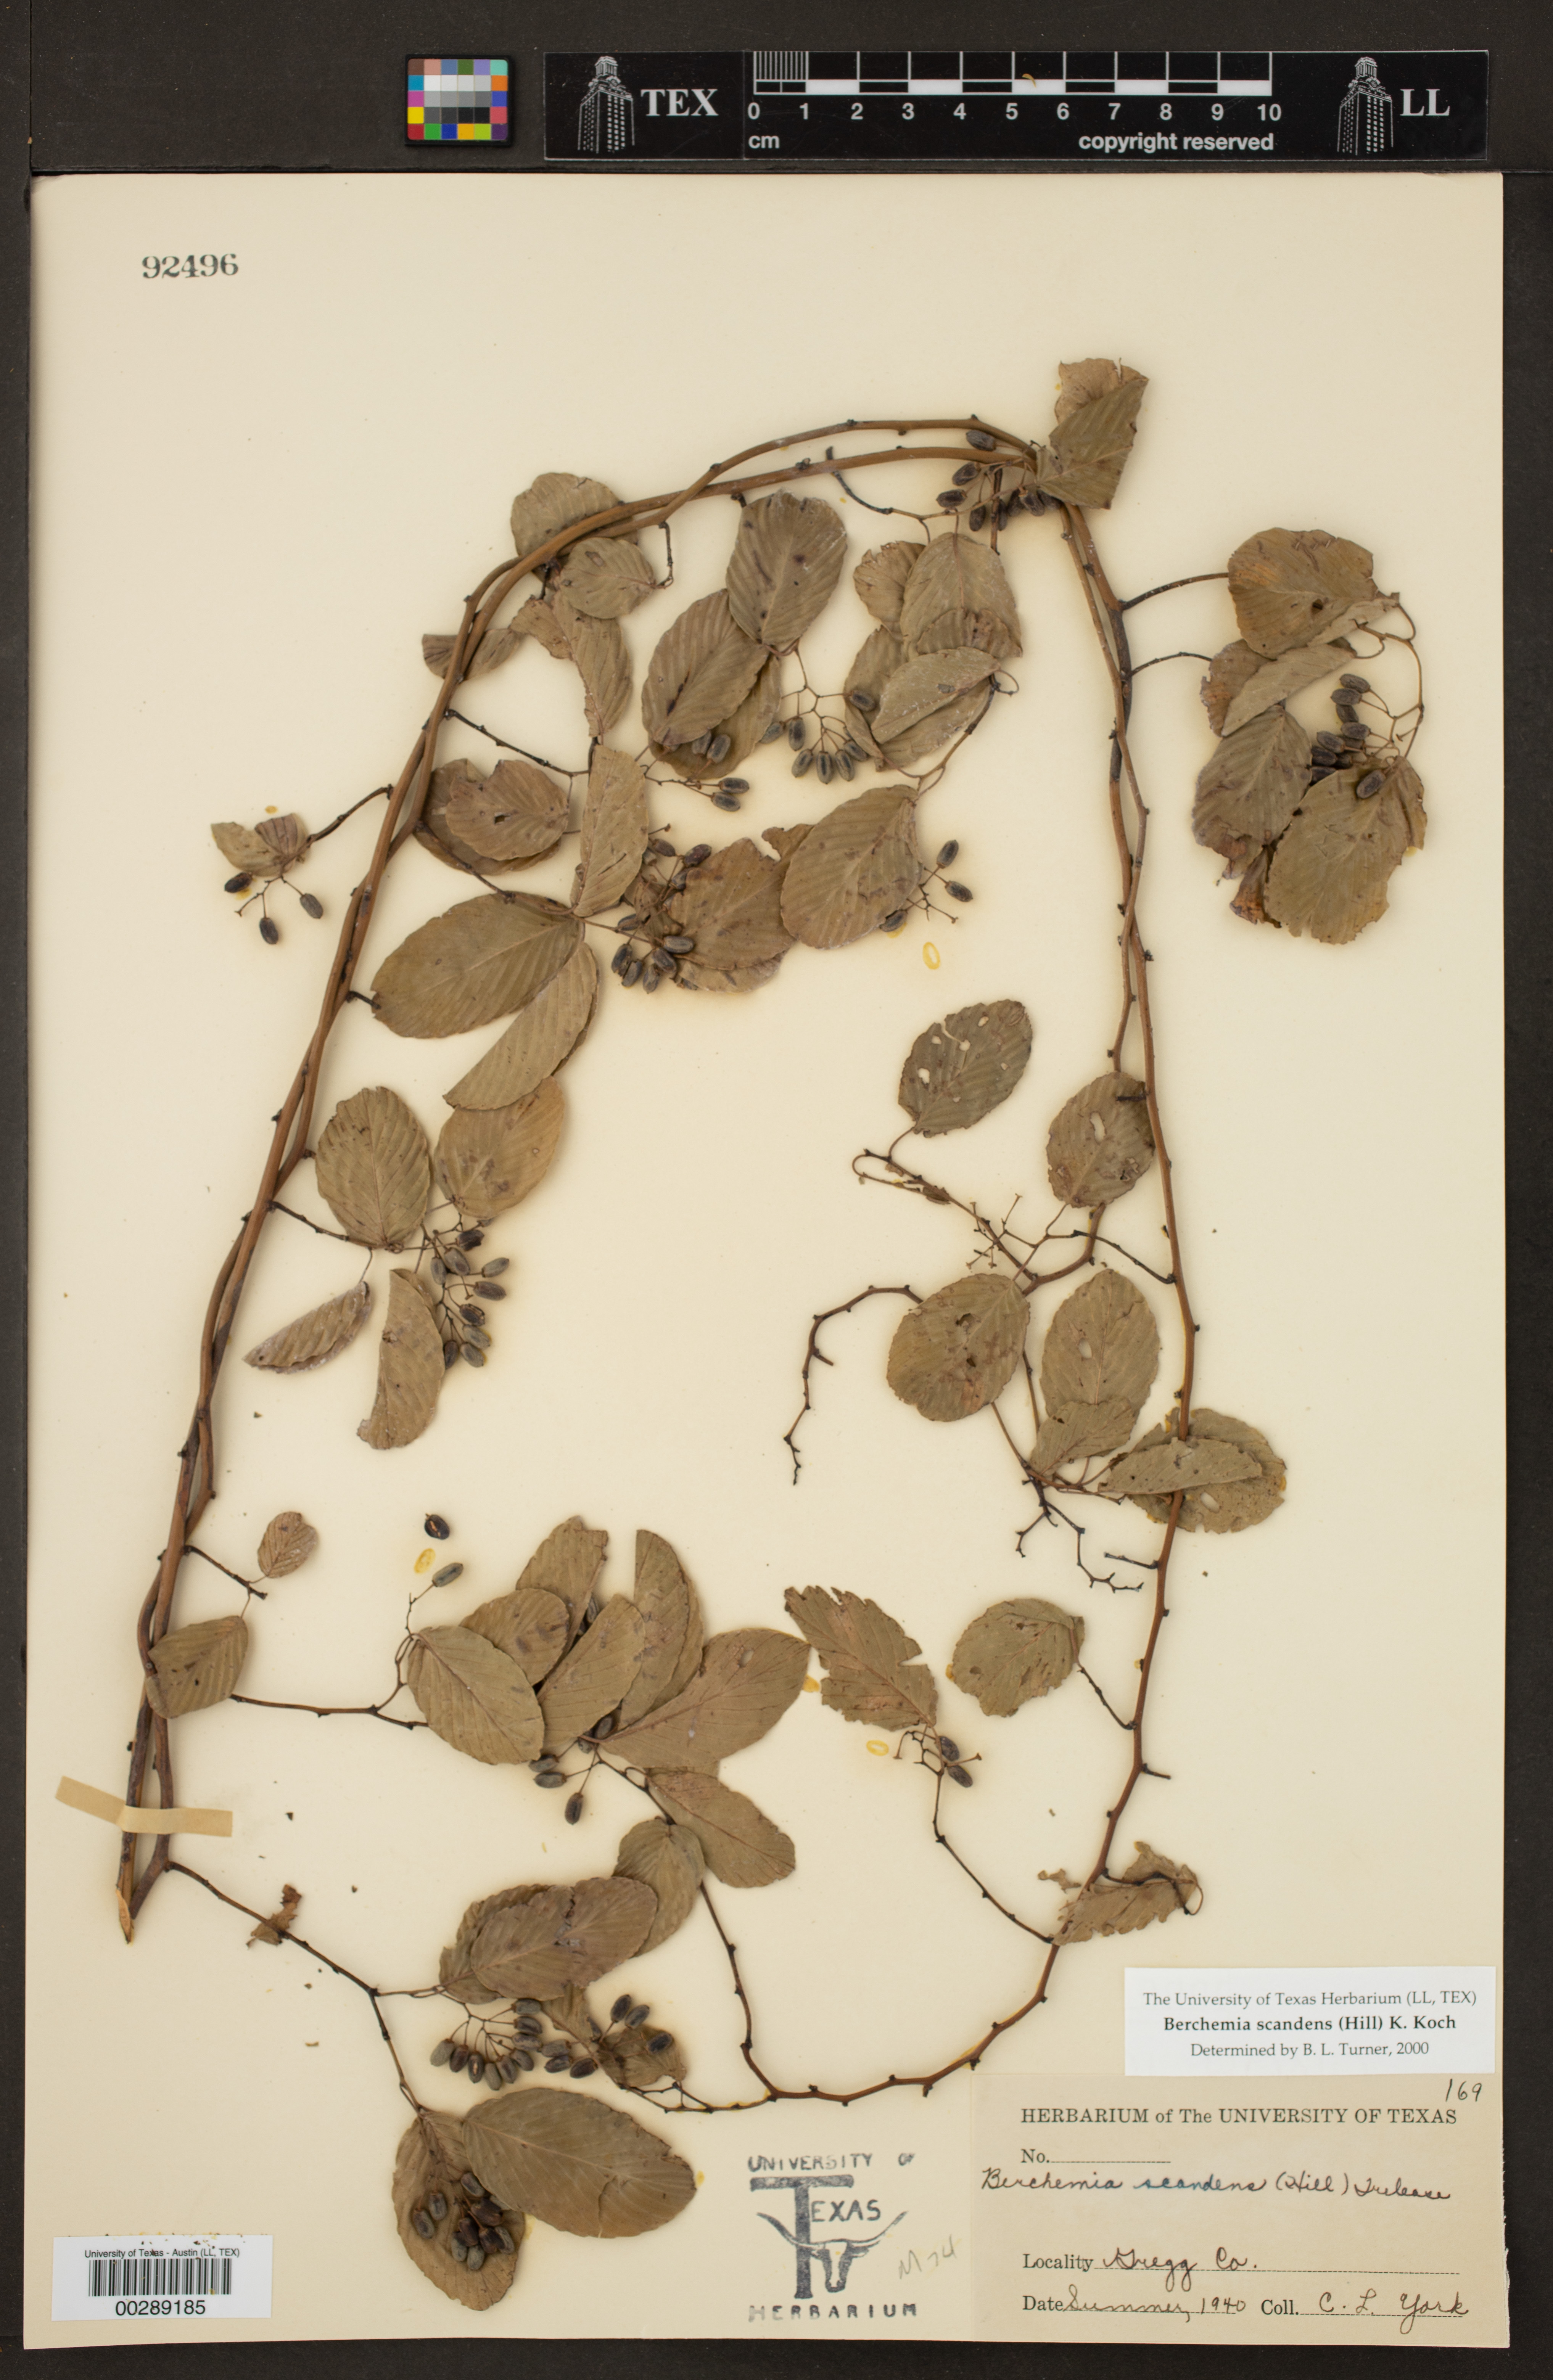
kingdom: Plantae
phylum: Tracheophyta
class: Magnoliopsida
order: Rosales
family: Rhamnaceae
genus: Berchemia
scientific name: Berchemia scandens
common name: Supplejack
